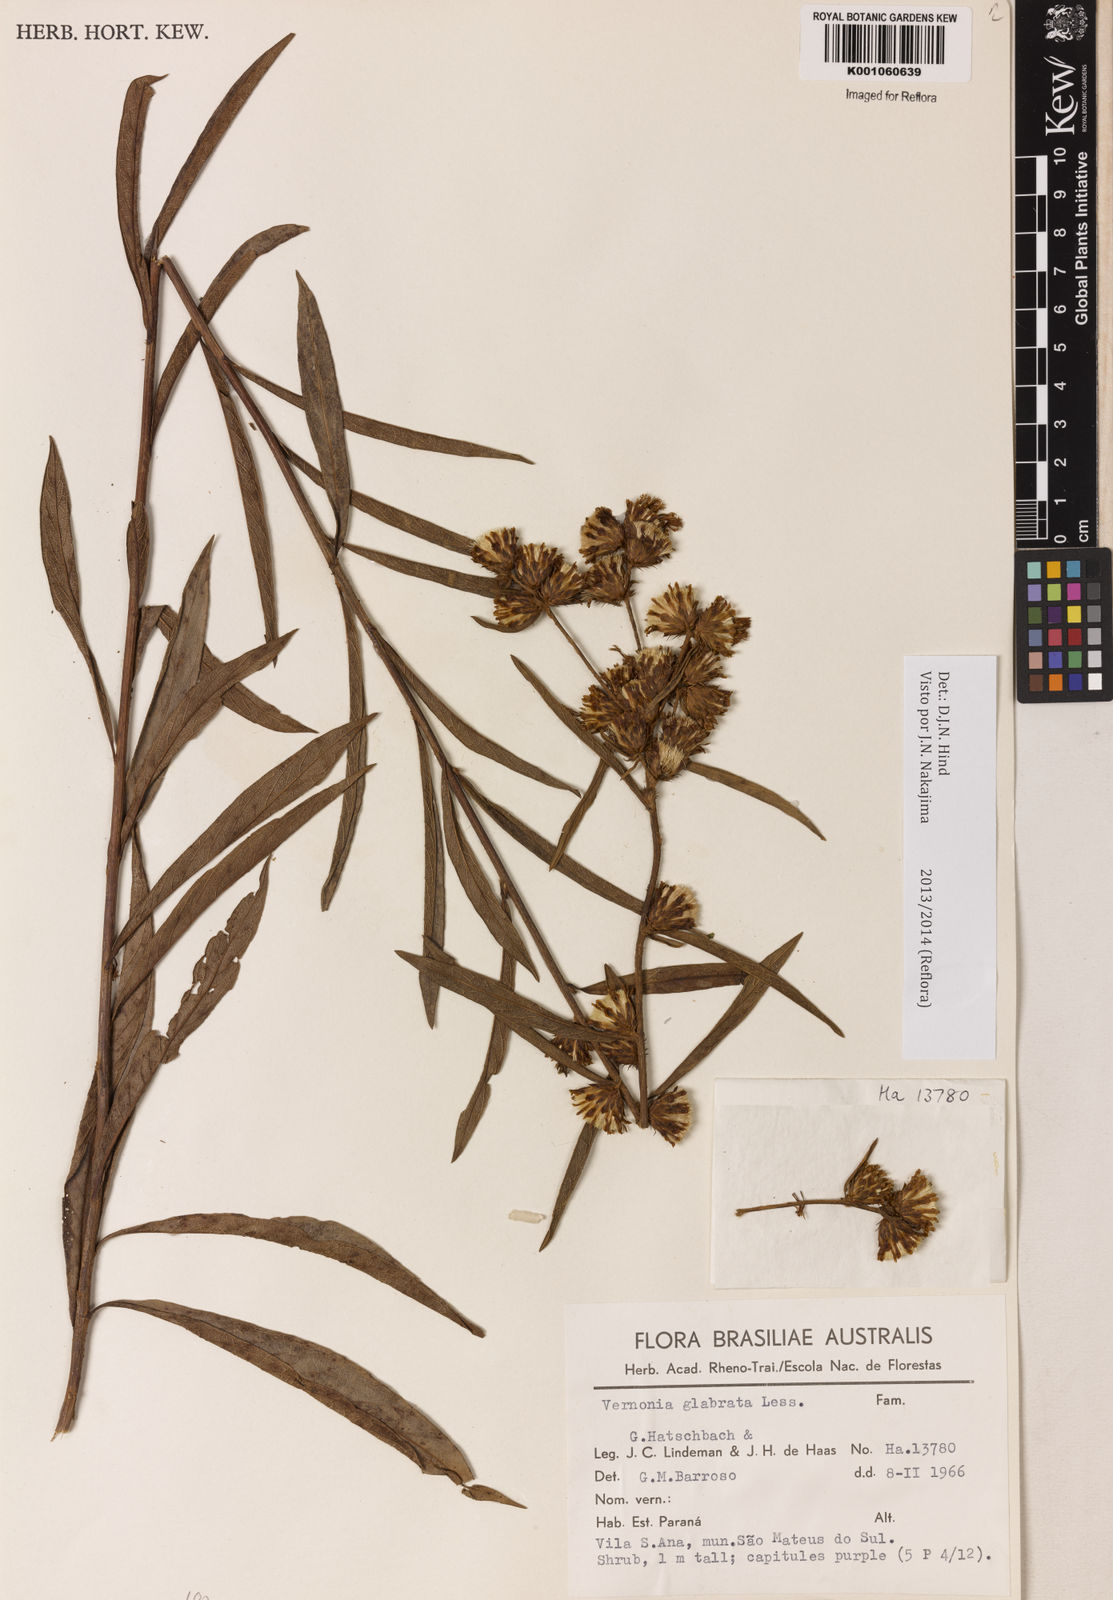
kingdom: Plantae
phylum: Tracheophyta
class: Magnoliopsida
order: Asterales
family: Asteraceae
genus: Lessingianthus
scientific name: Lessingianthus glabratus
